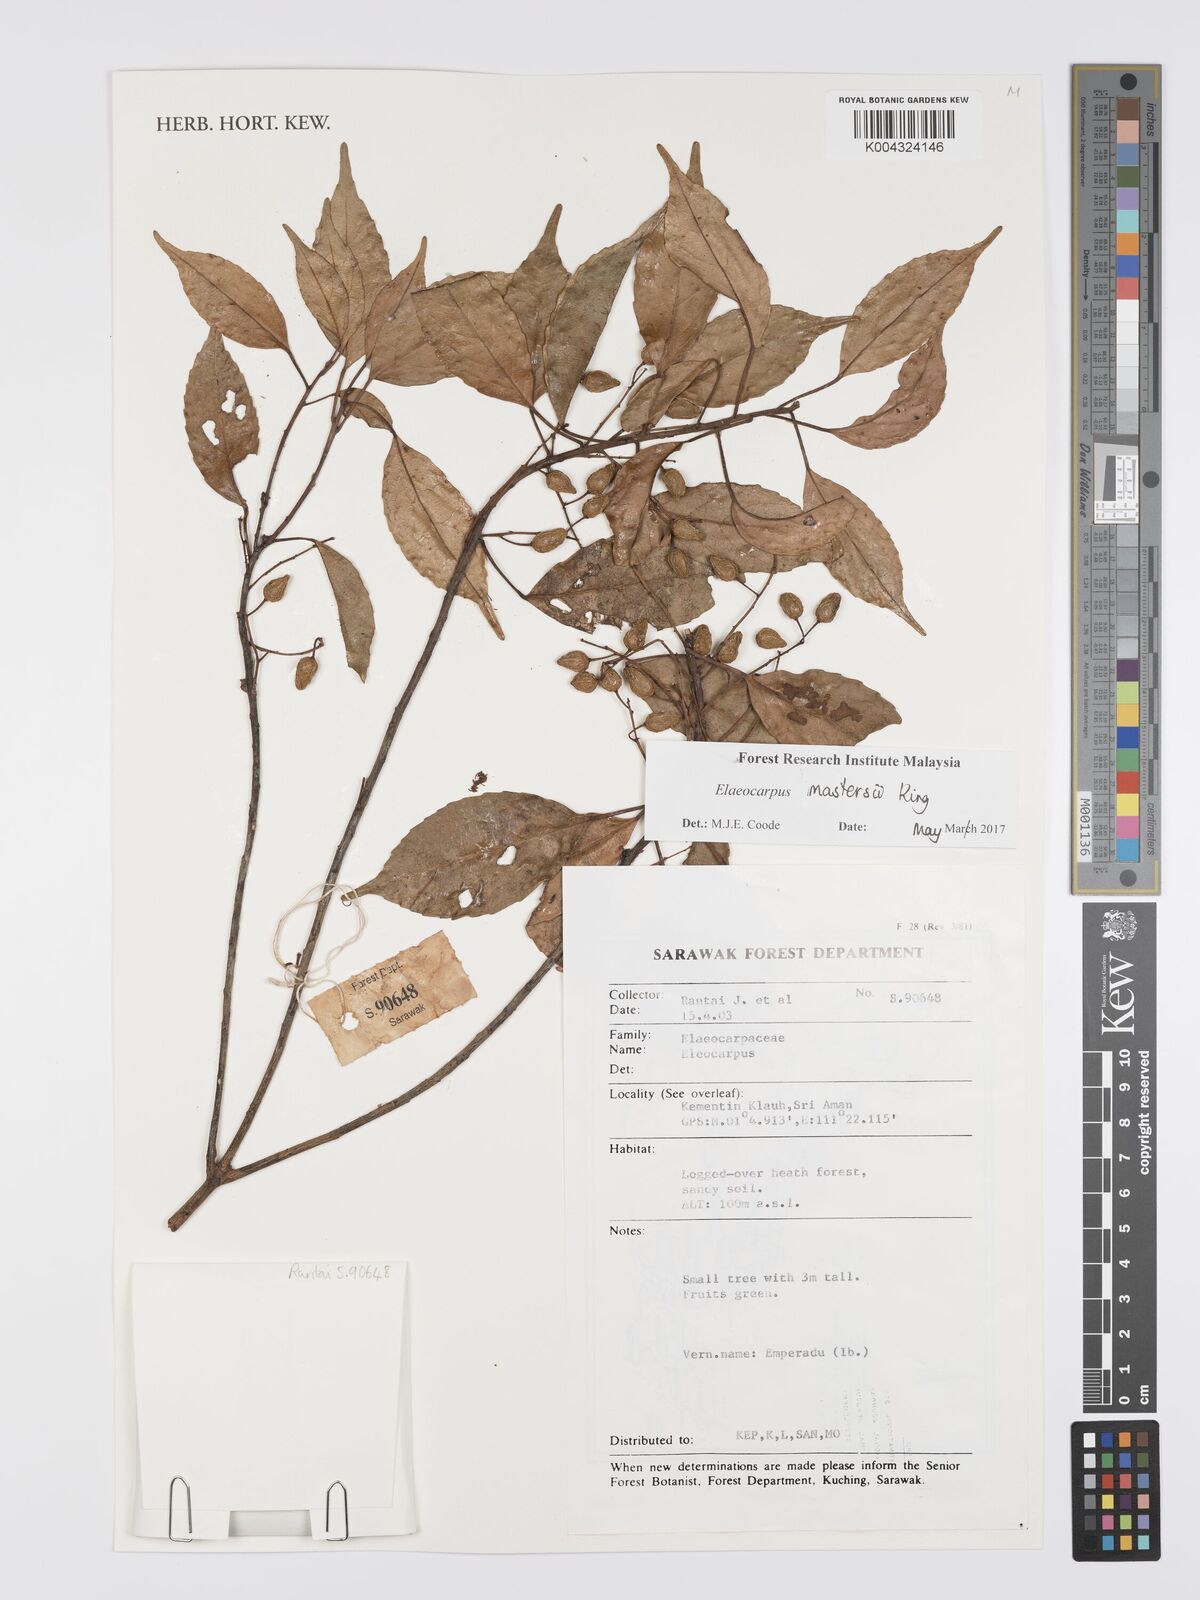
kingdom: Plantae
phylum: Tracheophyta
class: Magnoliopsida
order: Oxalidales
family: Elaeocarpaceae
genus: Elaeocarpus
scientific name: Elaeocarpus mastersii
